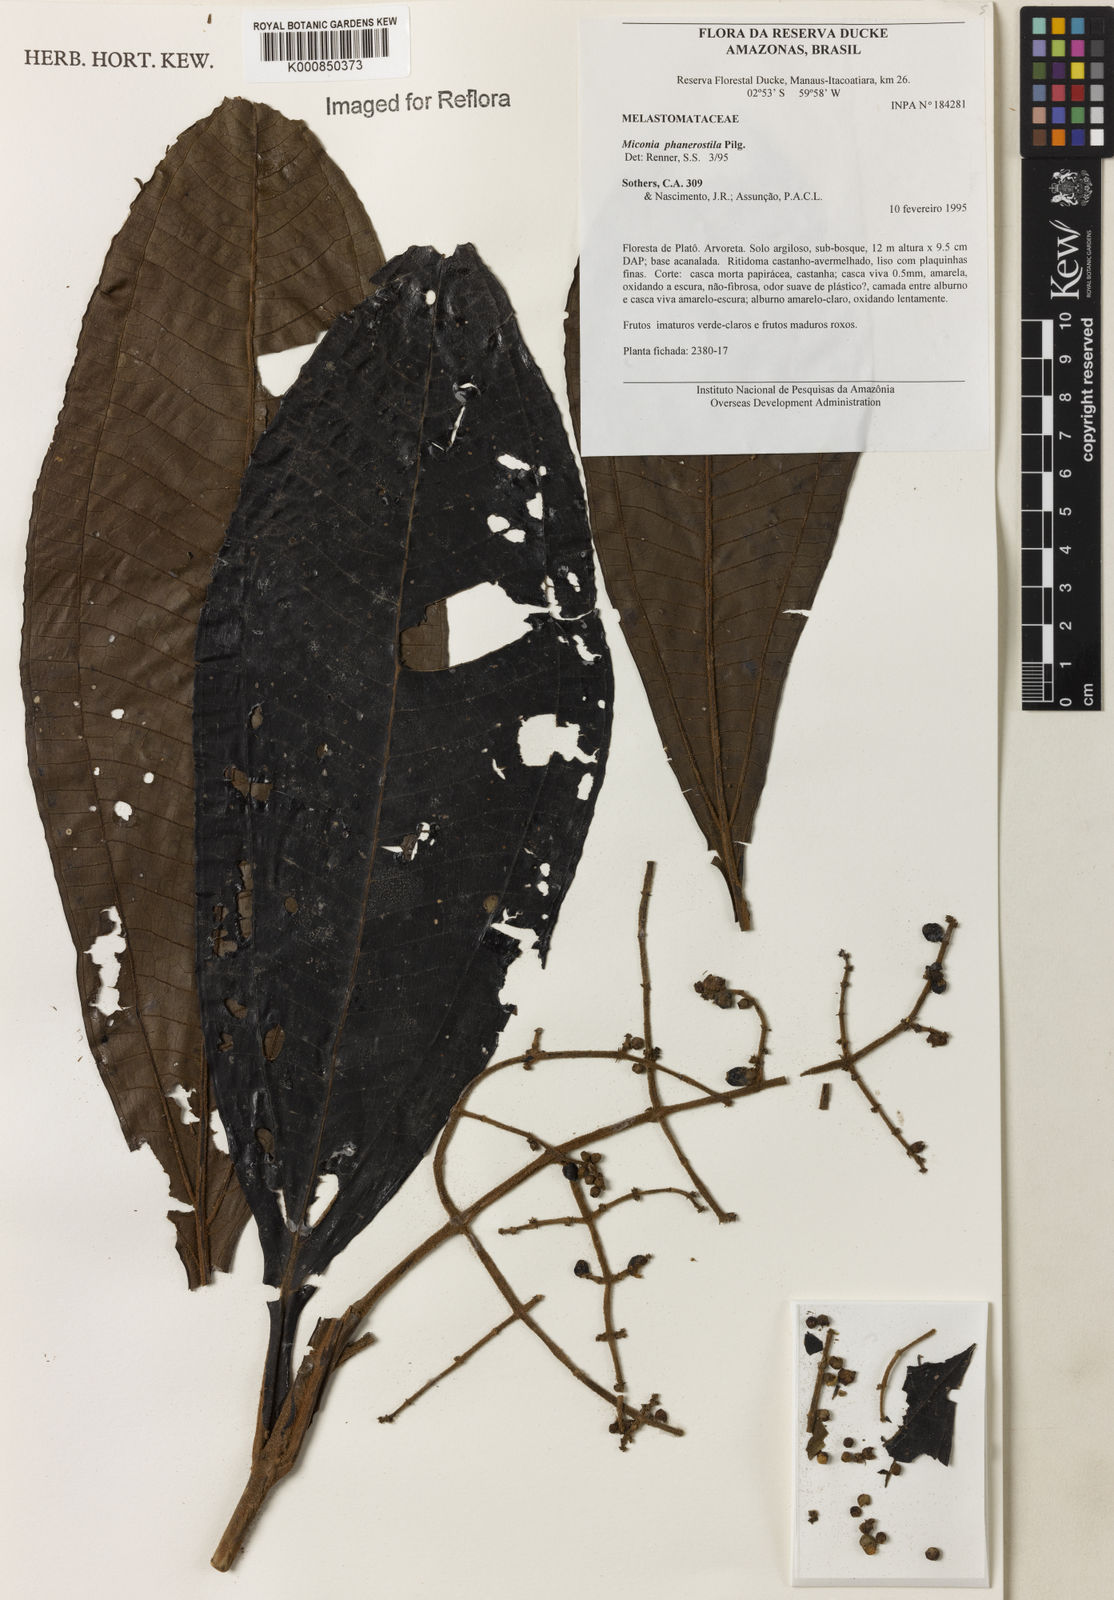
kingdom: Plantae
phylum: Tracheophyta
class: Magnoliopsida
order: Myrtales
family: Melastomataceae
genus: Miconia
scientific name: Miconia phanerostila
